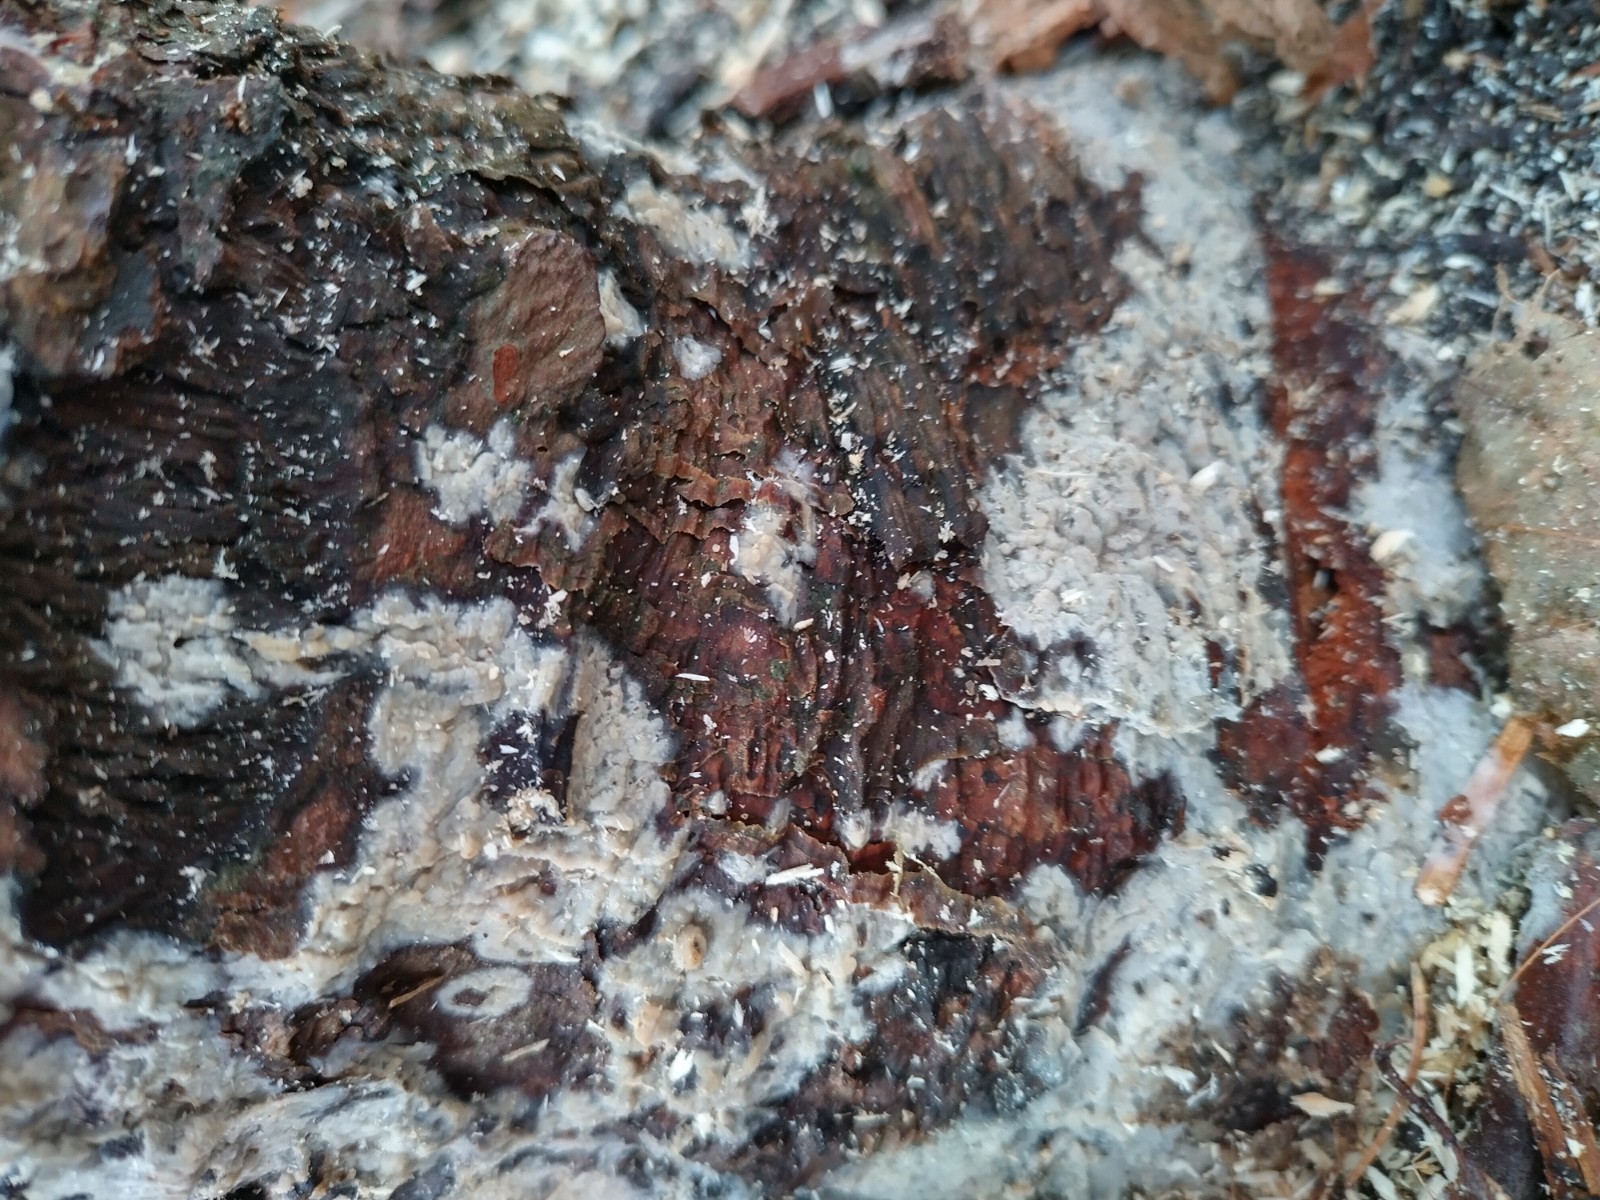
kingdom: Fungi
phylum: Basidiomycota
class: Agaricomycetes
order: Corticiales
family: Corticiaceae
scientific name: Corticiaceae
